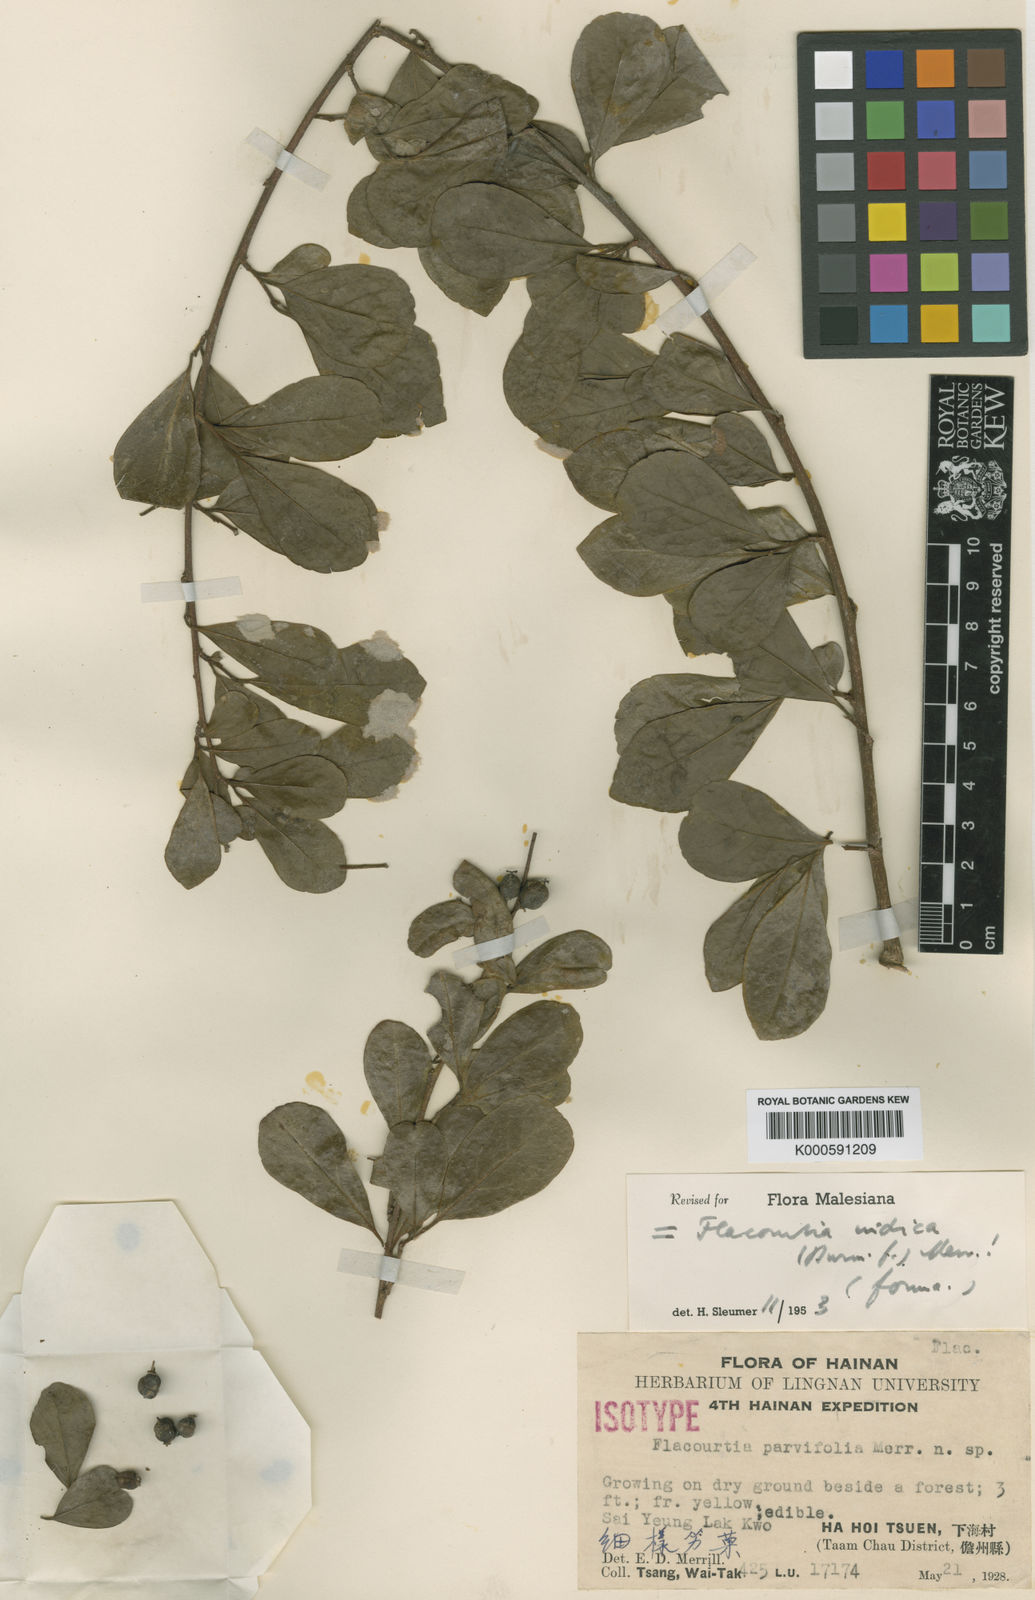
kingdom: Plantae
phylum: Tracheophyta
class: Magnoliopsida
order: Malpighiales
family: Salicaceae
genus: Flacourtia
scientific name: Flacourtia indica
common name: Governor's plum
